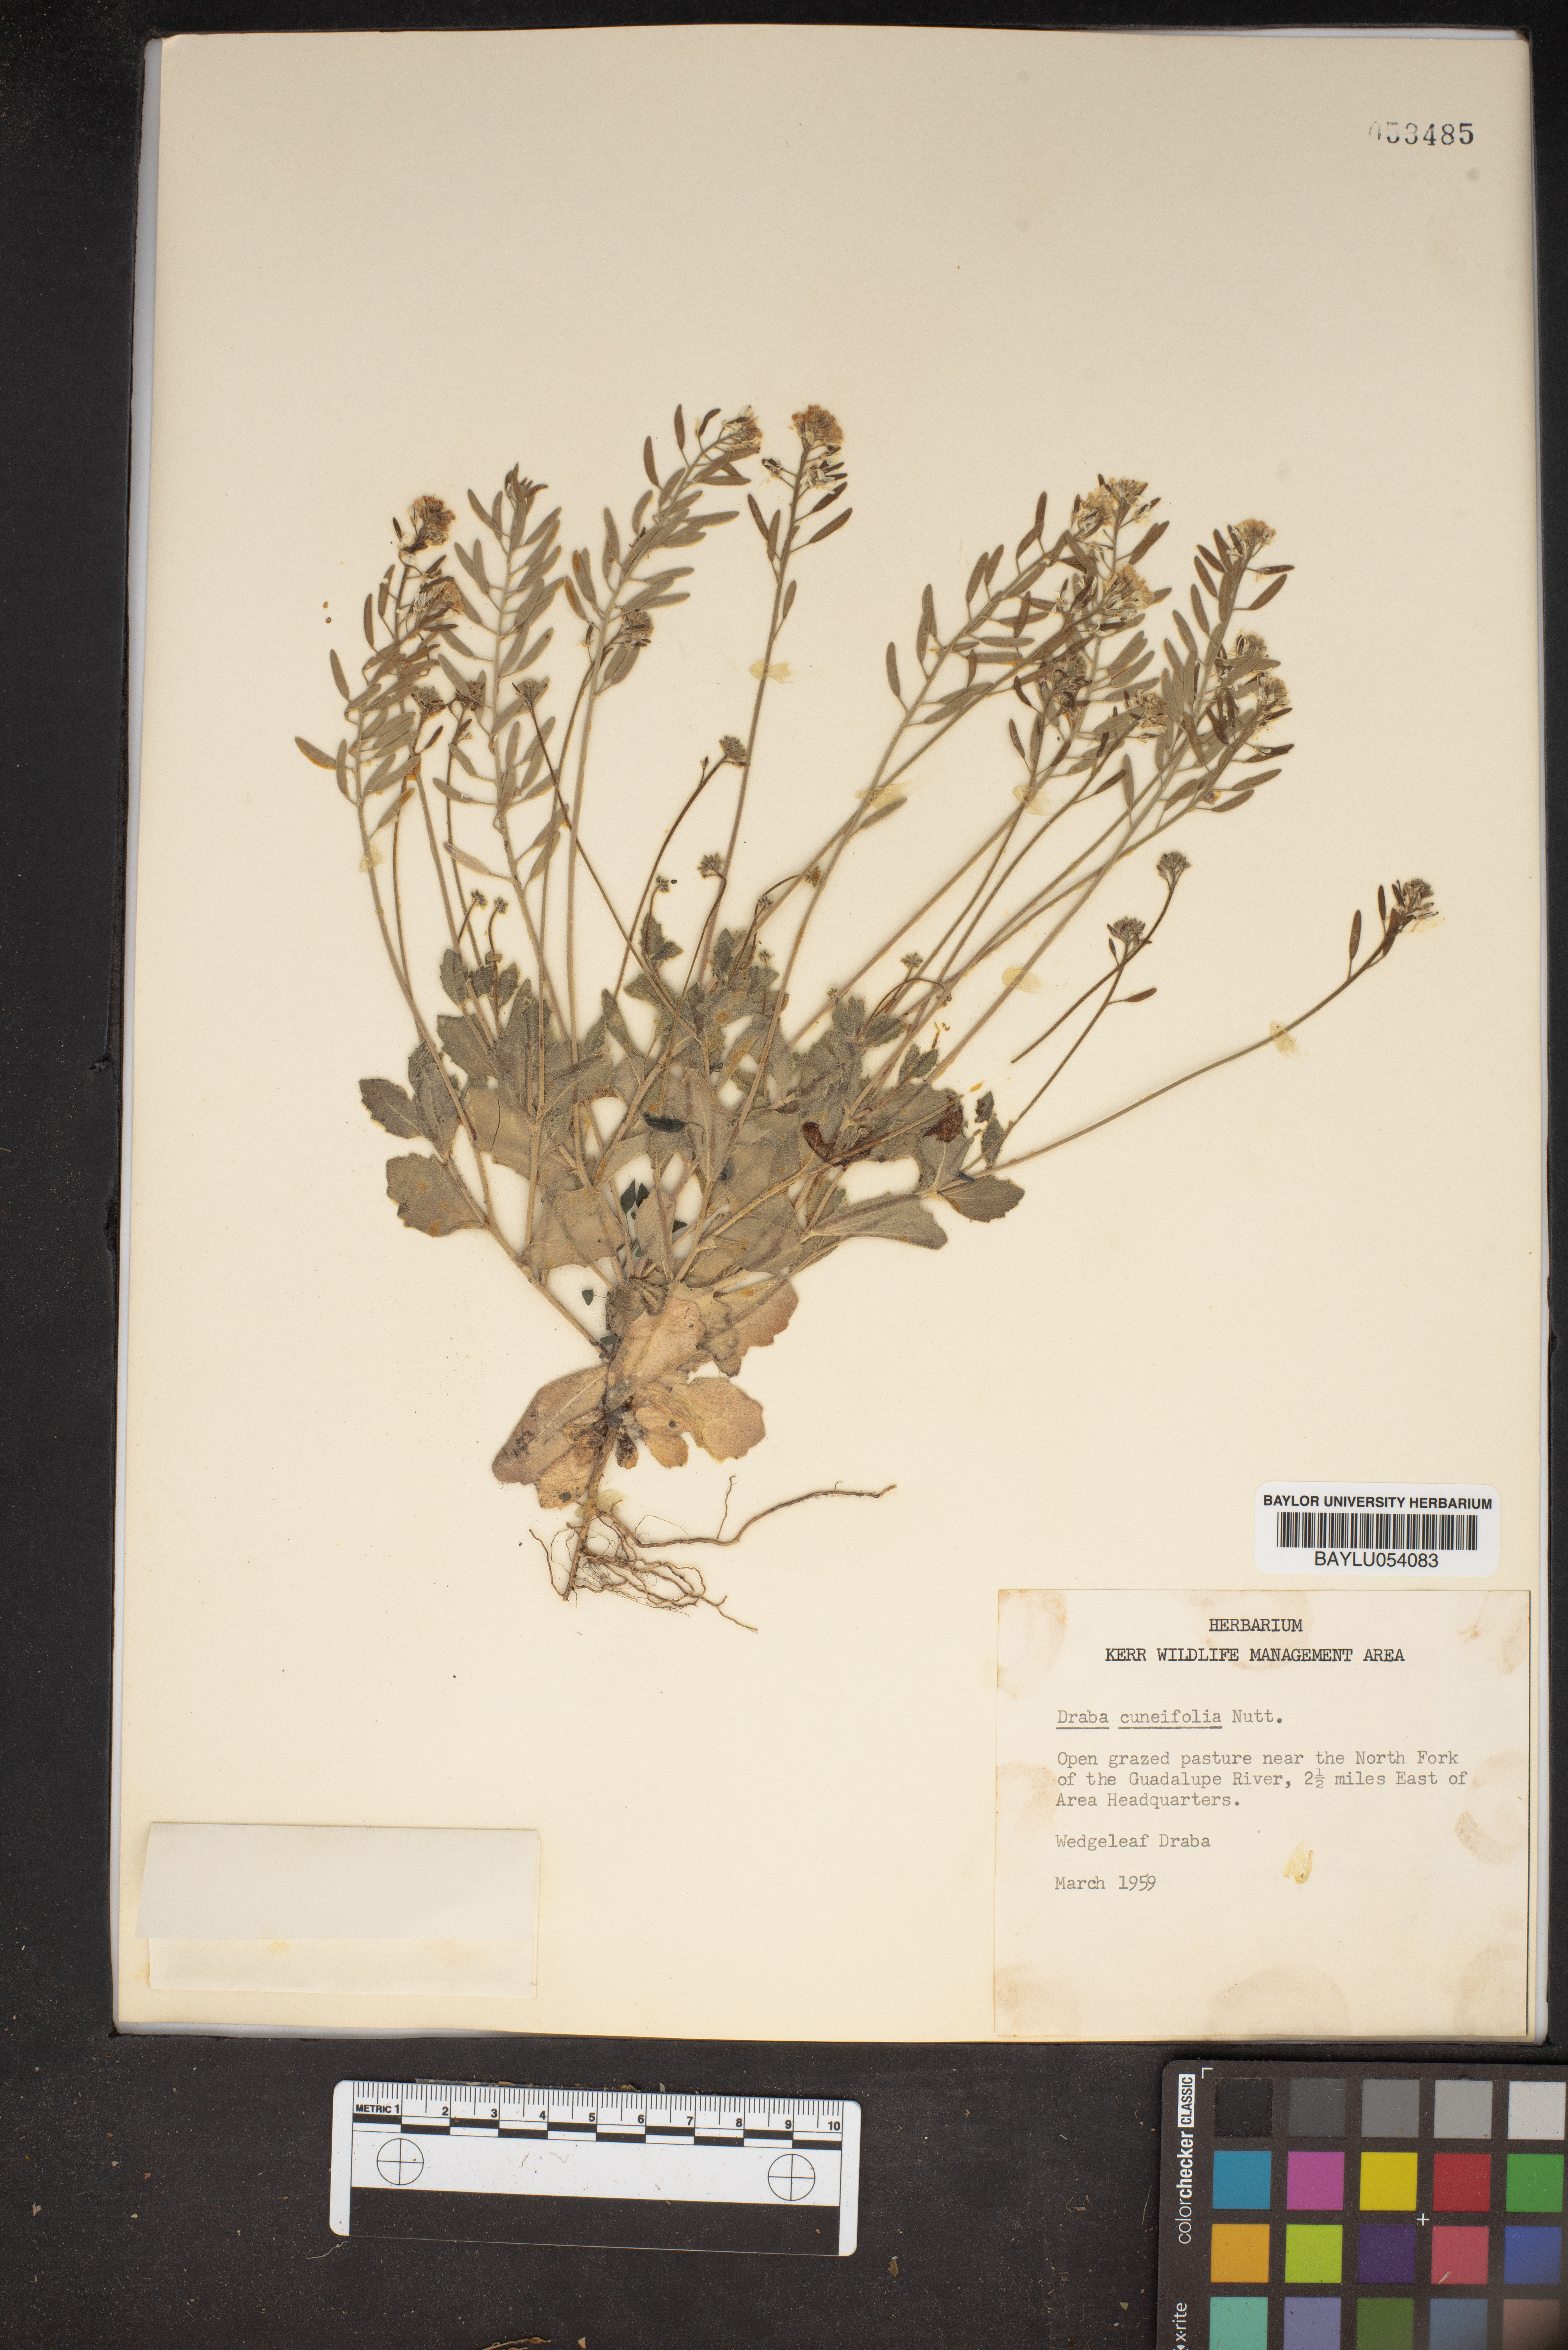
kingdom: Plantae
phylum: Tracheophyta
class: Magnoliopsida
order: Brassicales
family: Brassicaceae
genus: Tomostima
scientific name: Tomostima cuneifolia
